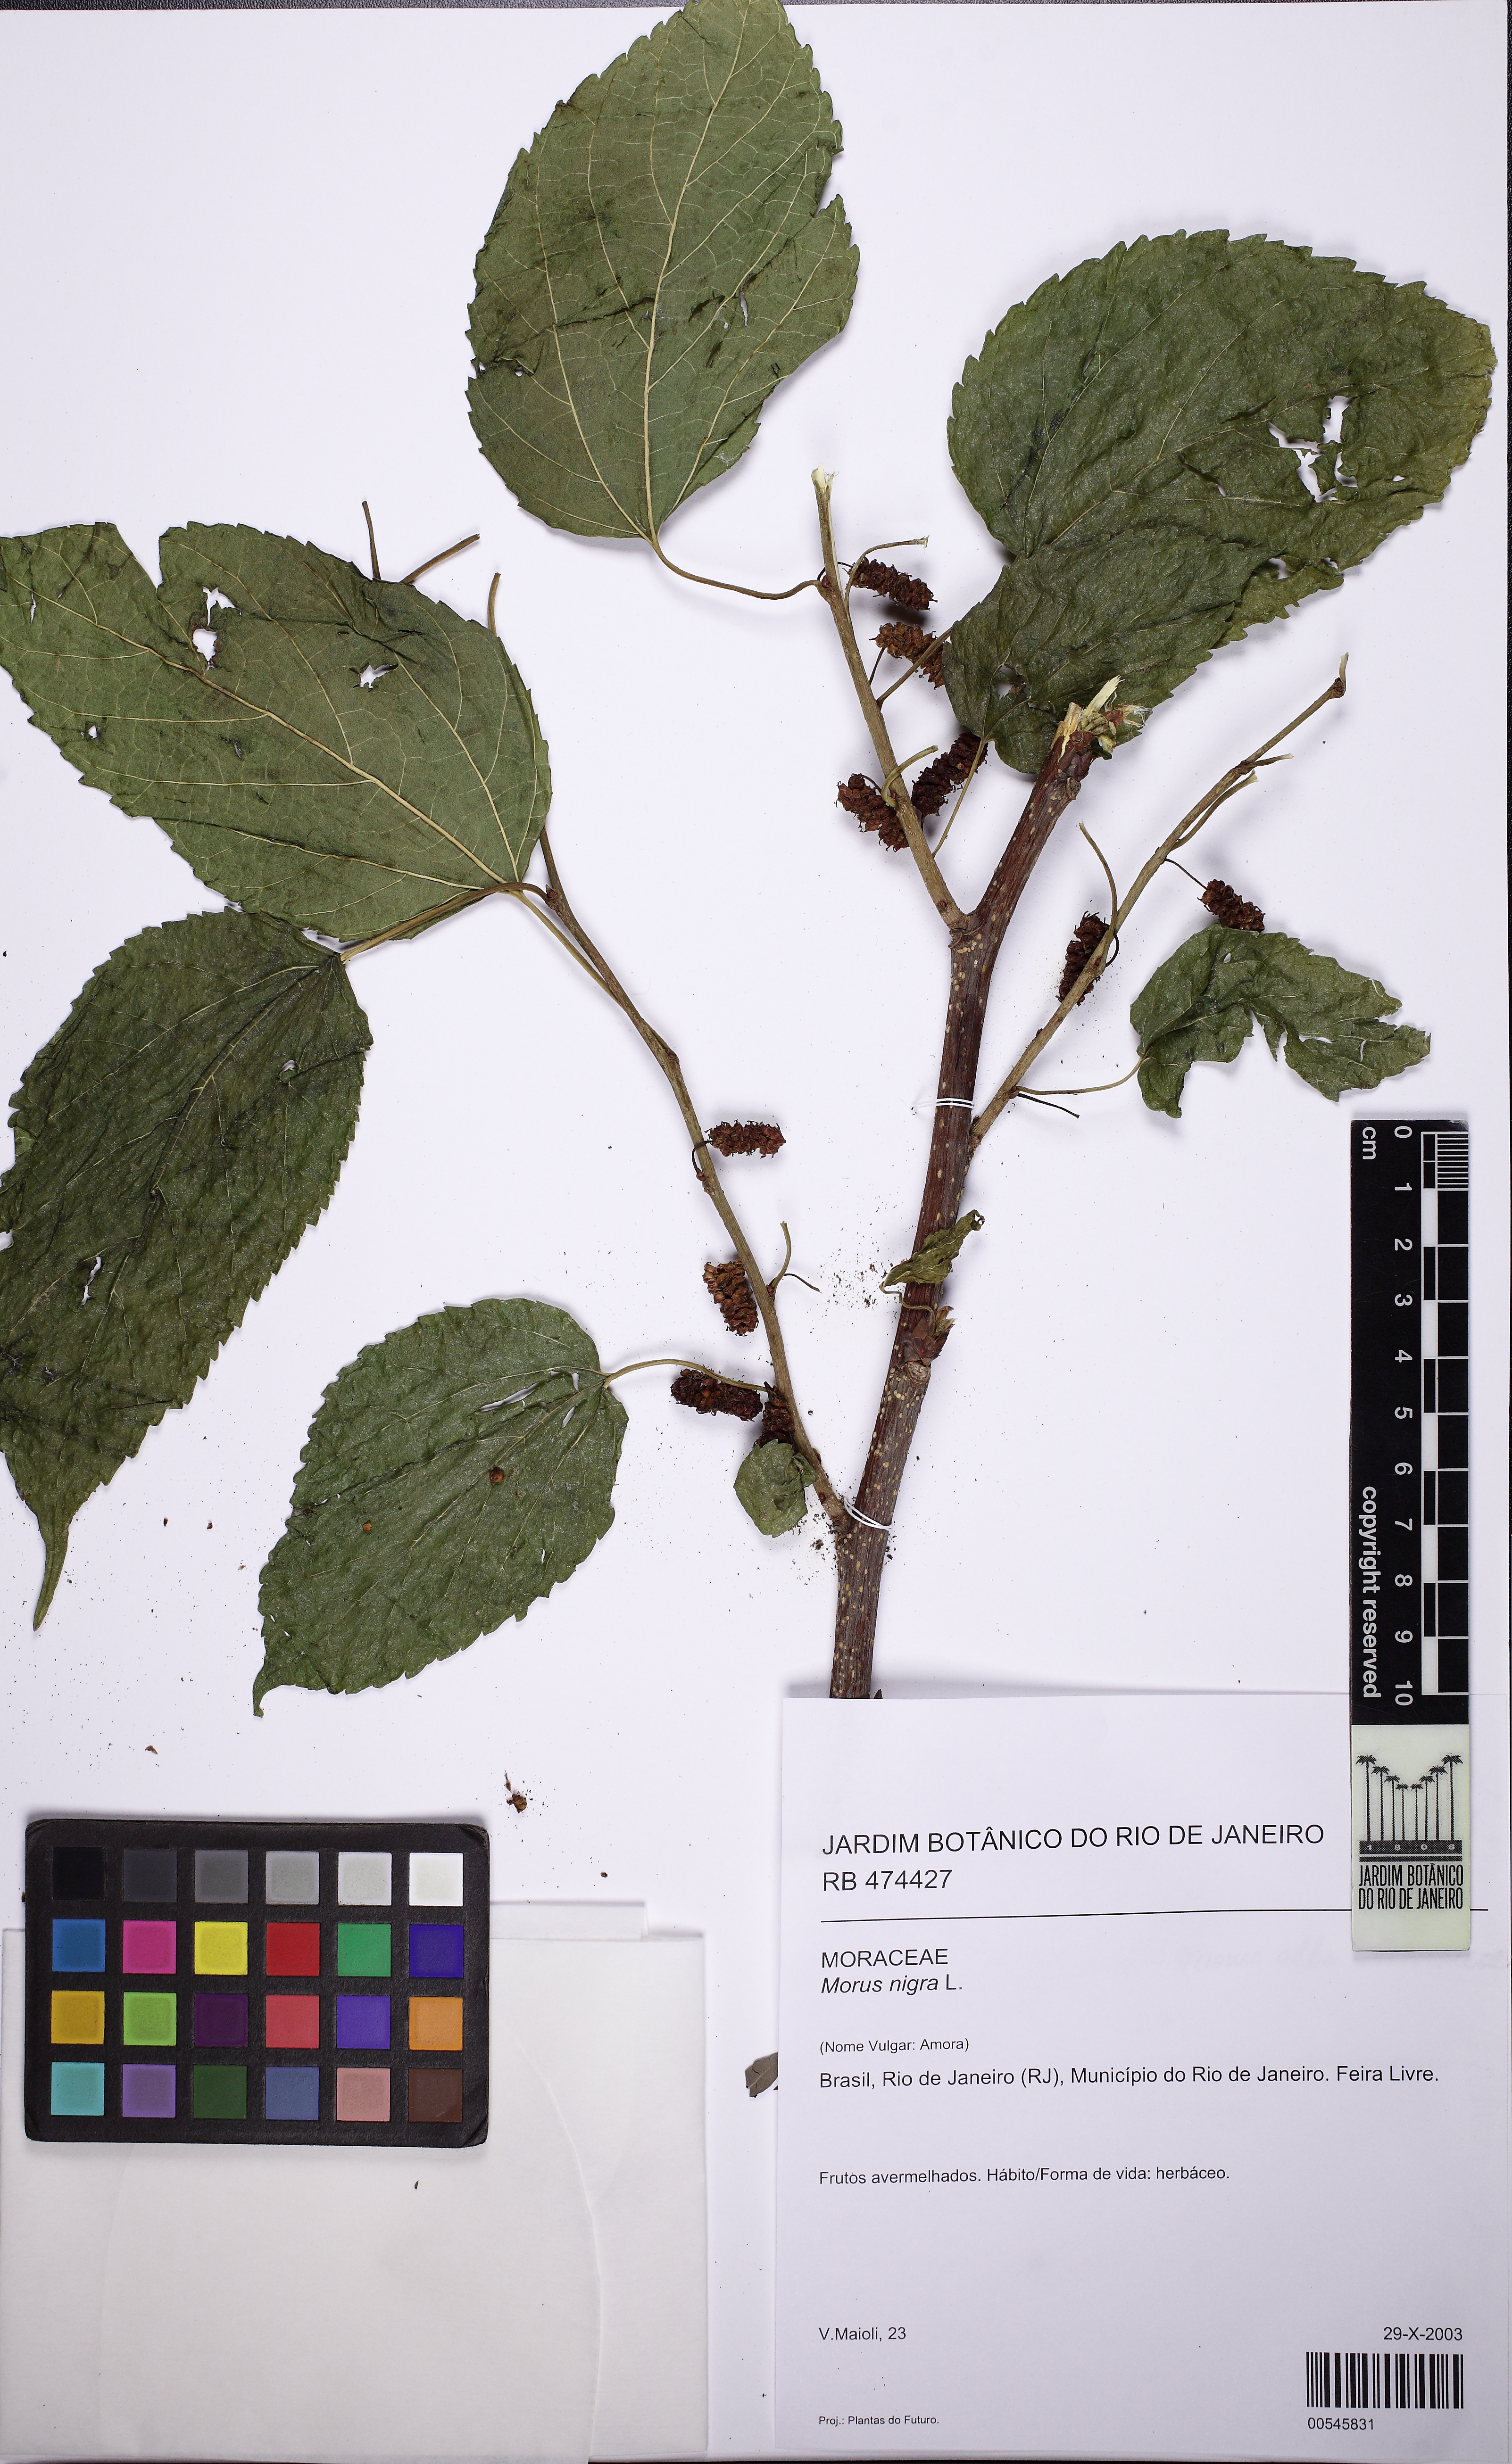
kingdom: Plantae
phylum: Tracheophyta
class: Magnoliopsida
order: Rosales
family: Moraceae
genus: Morus
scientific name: Morus nigra
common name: Black mulberry
